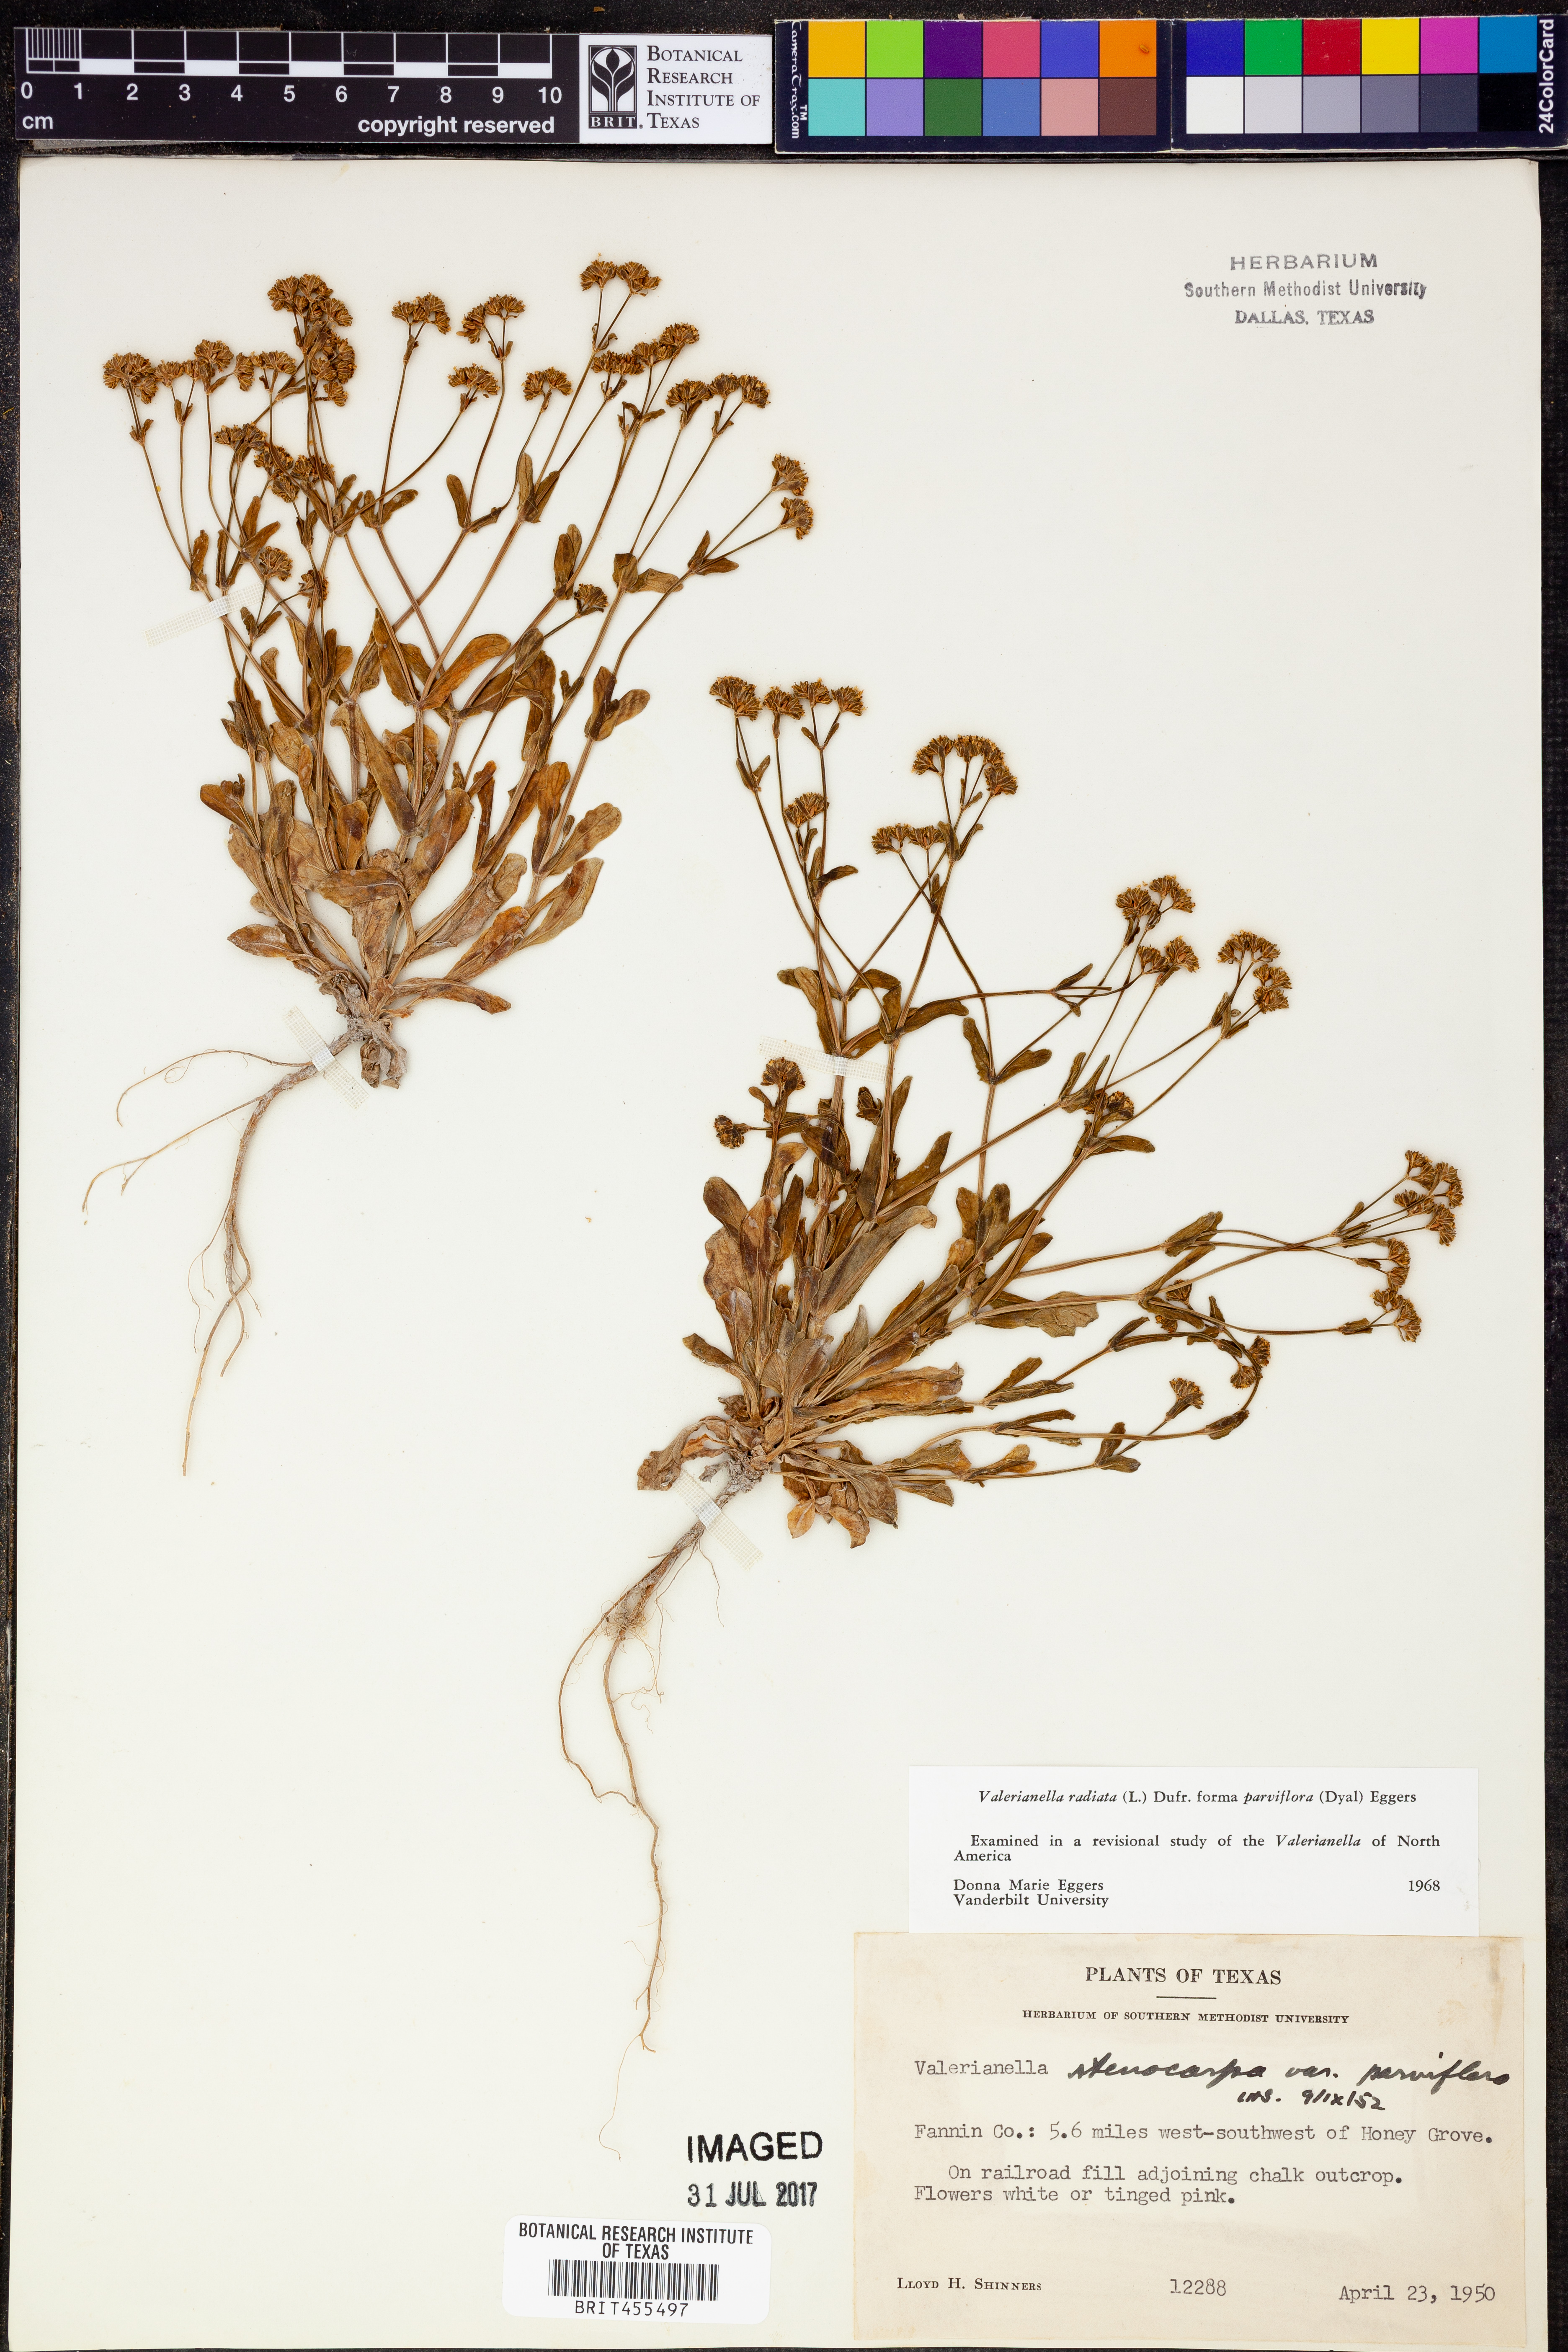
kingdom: Plantae
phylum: Tracheophyta
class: Magnoliopsida
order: Dipsacales
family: Caprifoliaceae
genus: Valerianella
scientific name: Valerianella radiata
